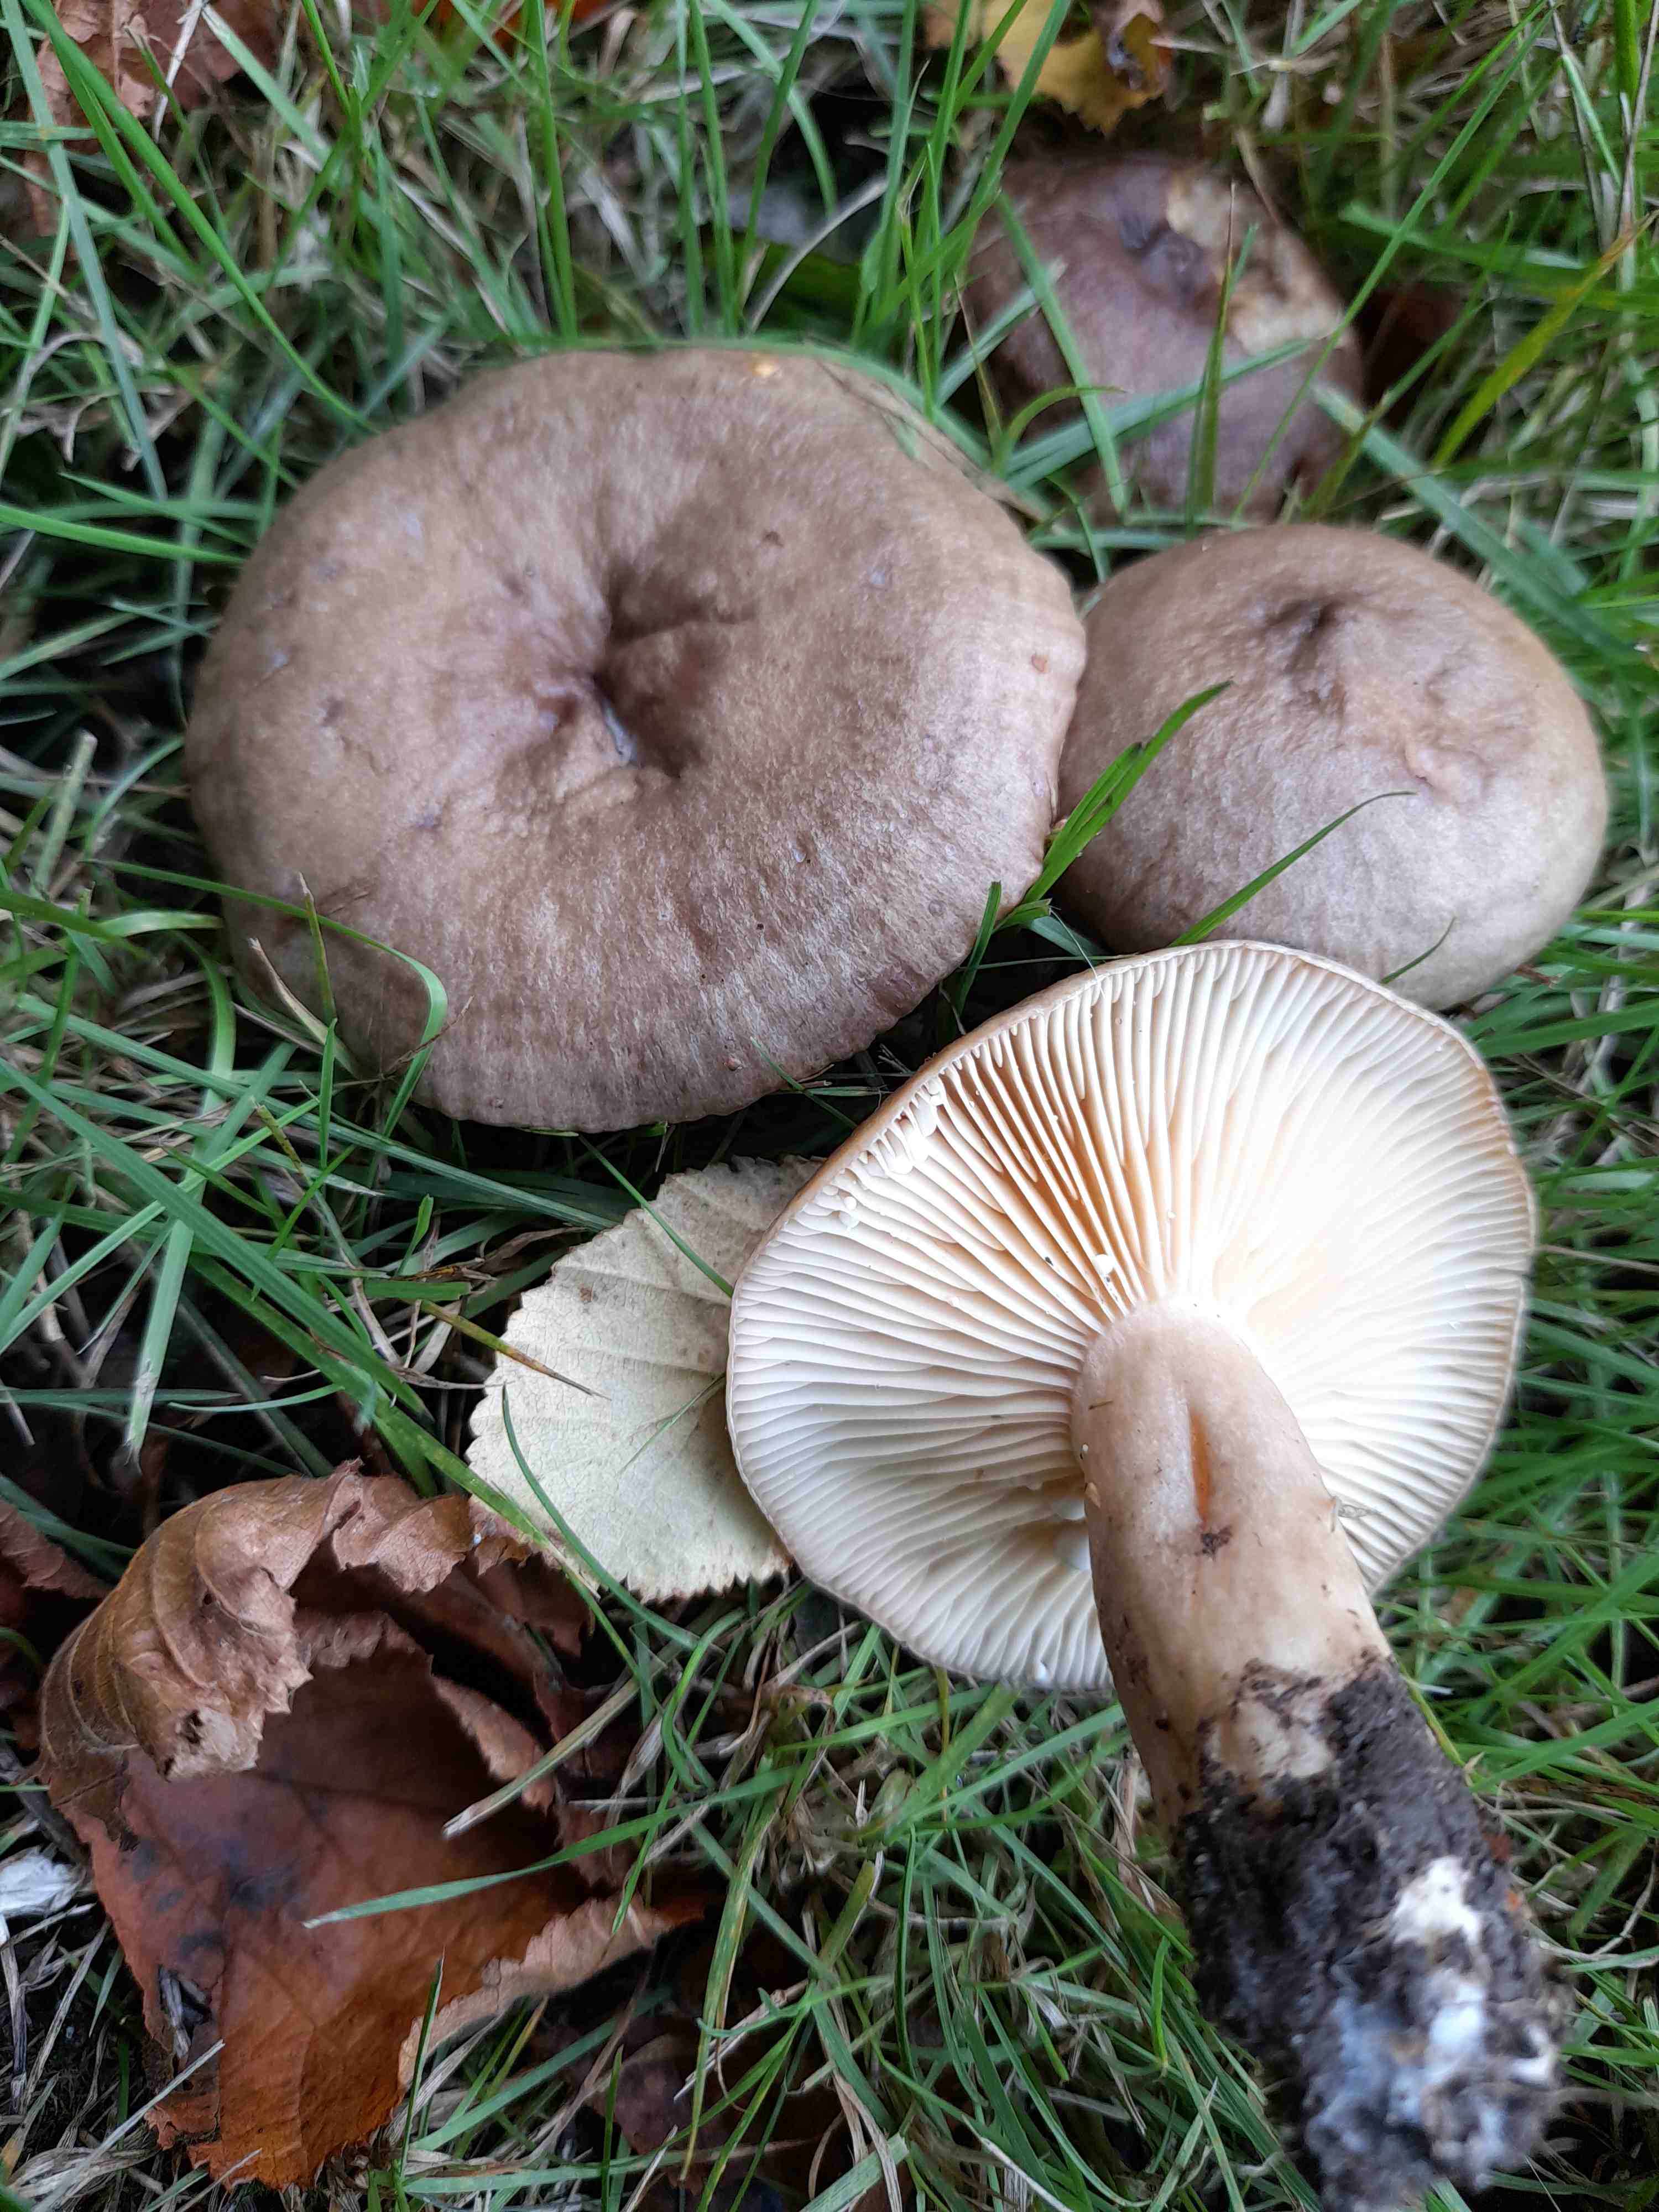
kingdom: Fungi
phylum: Basidiomycota
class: Agaricomycetes
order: Russulales
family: Russulaceae
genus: Lactarius
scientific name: Lactarius pyrogalus
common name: hassel-mælkehat
